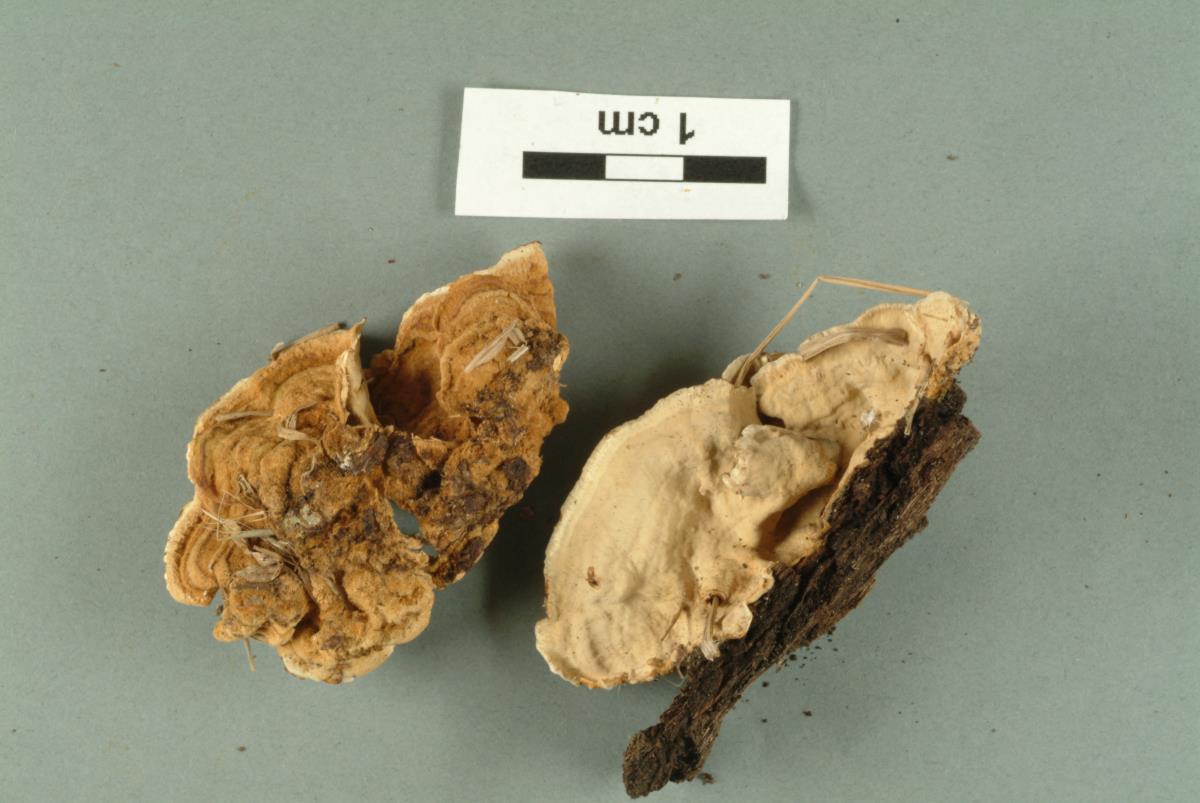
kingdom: Fungi
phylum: Basidiomycota
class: Agaricomycetes
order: Agaricales
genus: Dendrothele
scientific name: Dendrothele corniculata
